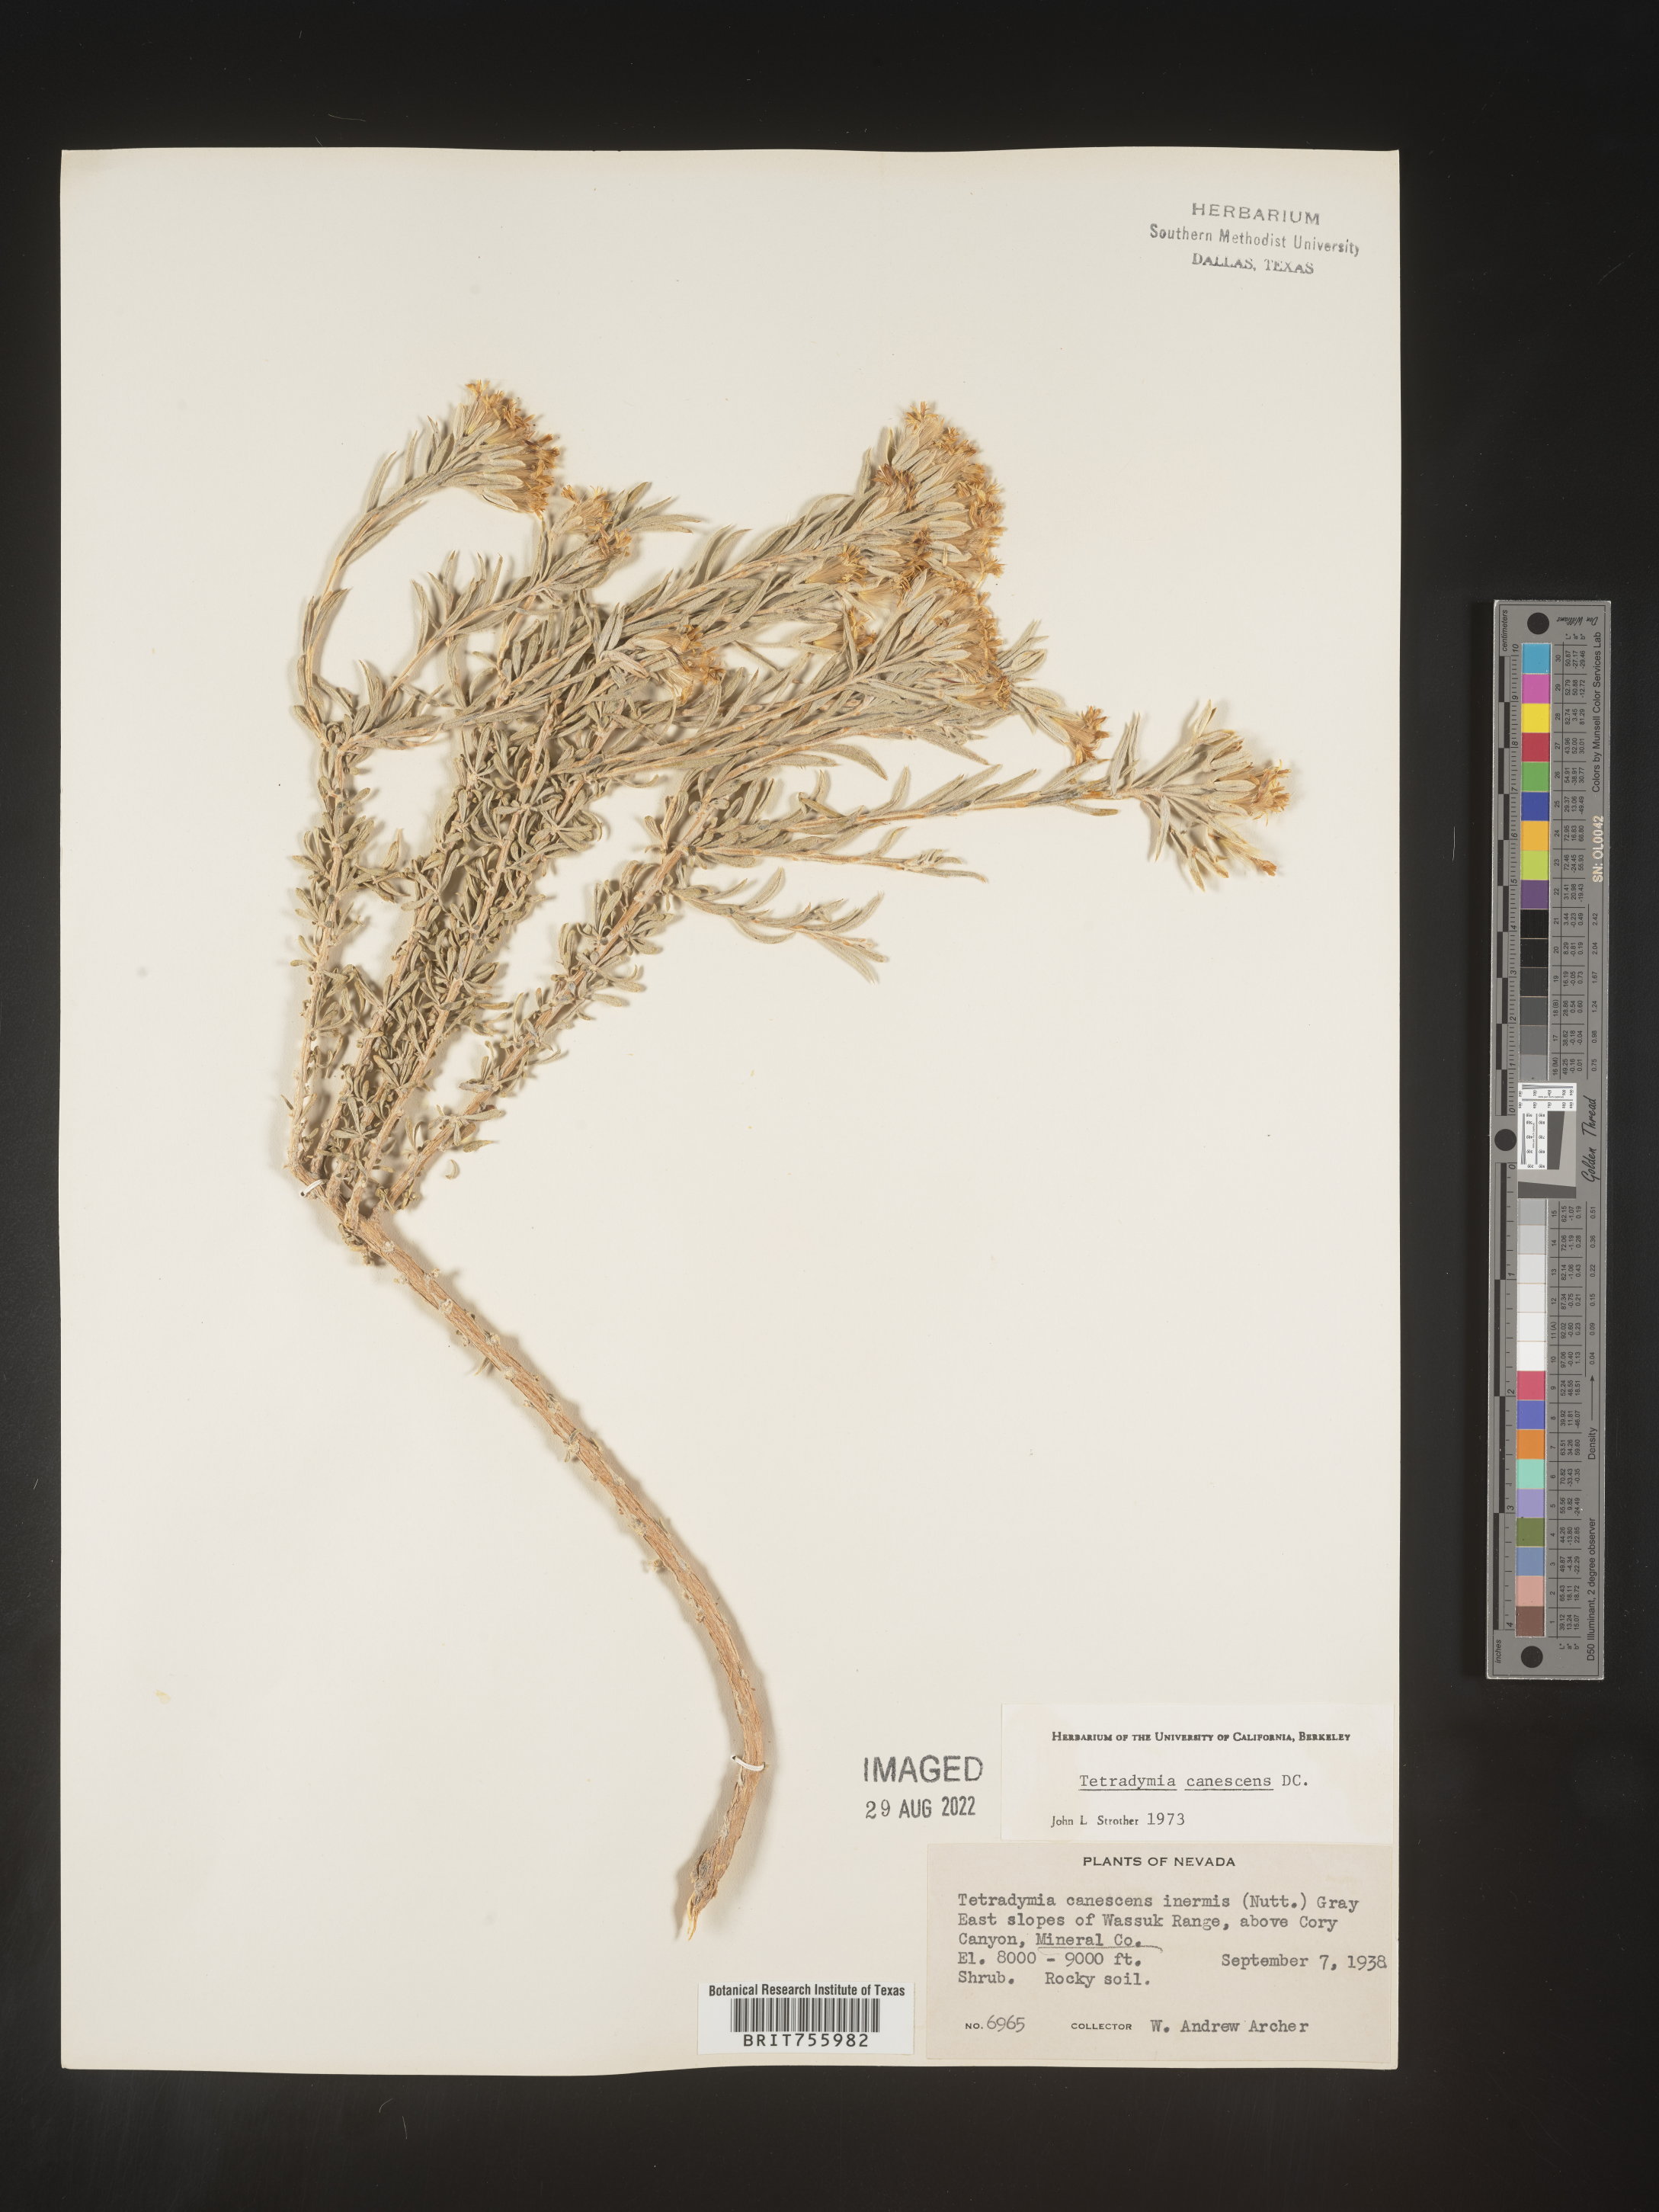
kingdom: Plantae
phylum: Tracheophyta
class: Magnoliopsida
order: Asterales
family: Asteraceae
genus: Tetradymia
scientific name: Tetradymia canescens
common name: Spineless horsebrush
